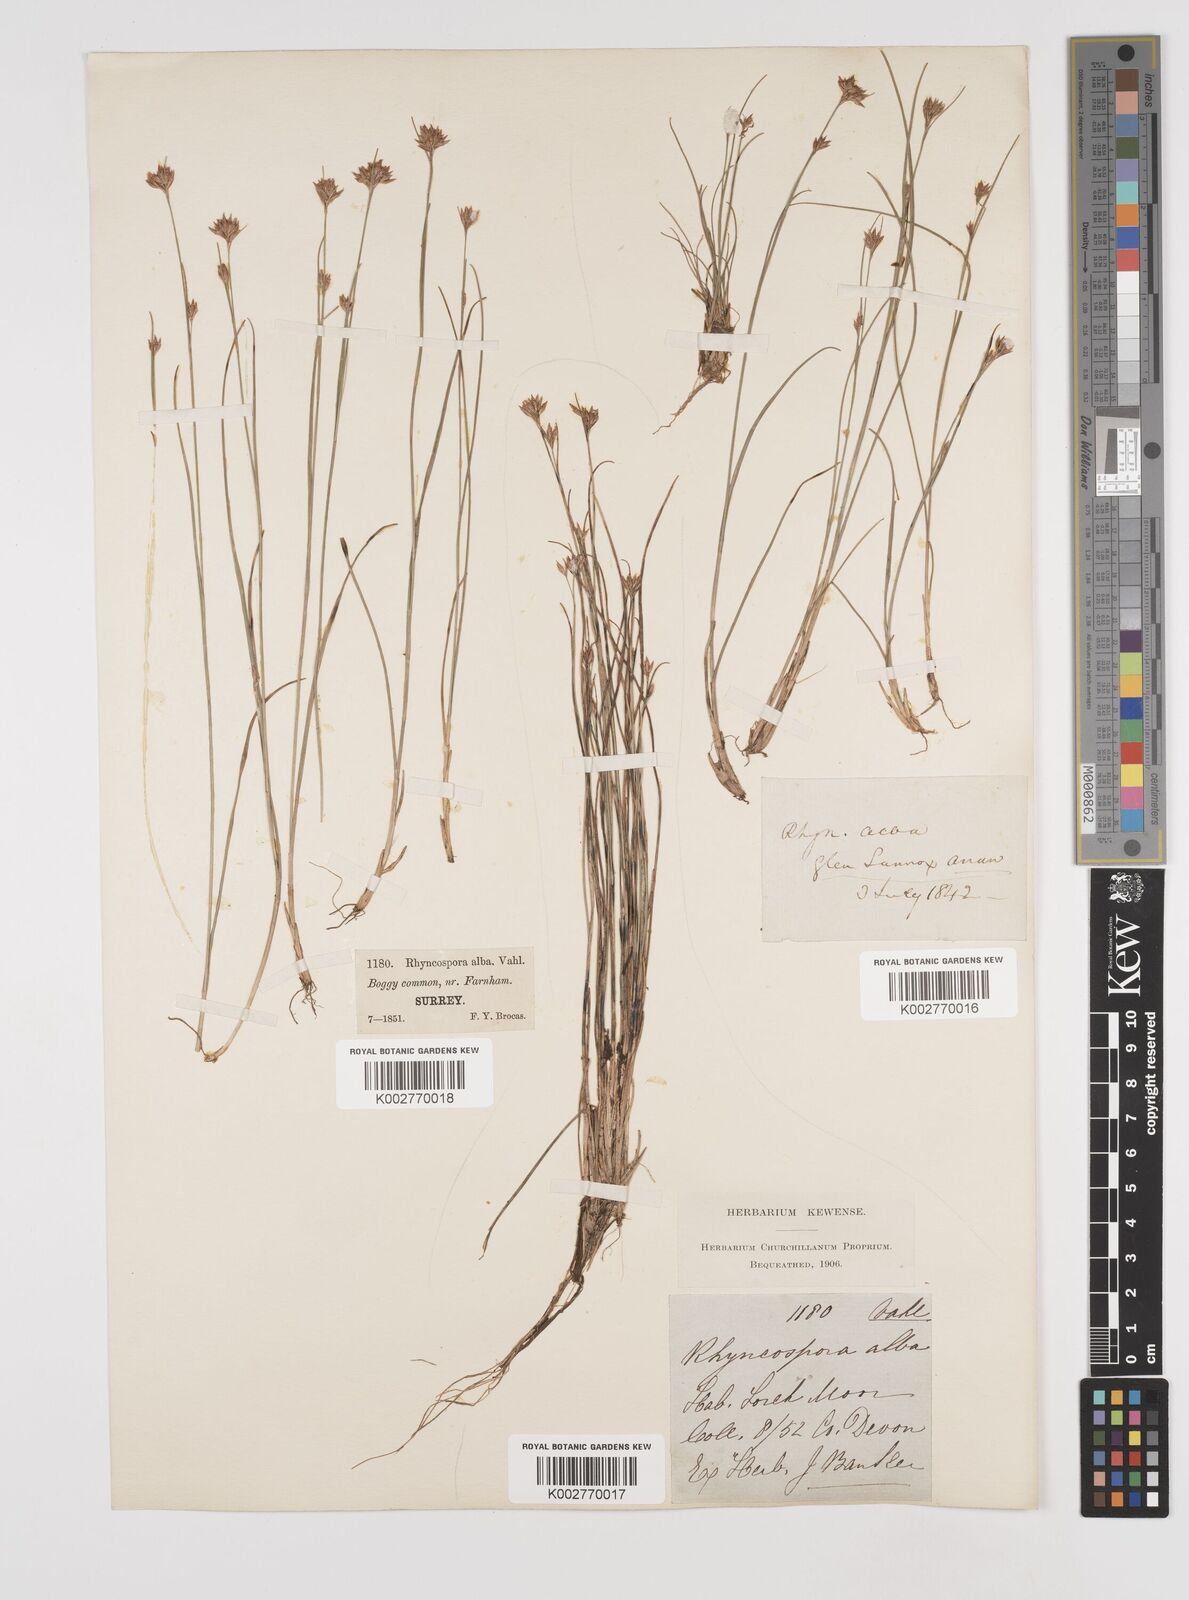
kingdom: Plantae
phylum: Tracheophyta
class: Liliopsida
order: Poales
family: Cyperaceae
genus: Rhynchospora
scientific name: Rhynchospora alba
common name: White beak-sedge
